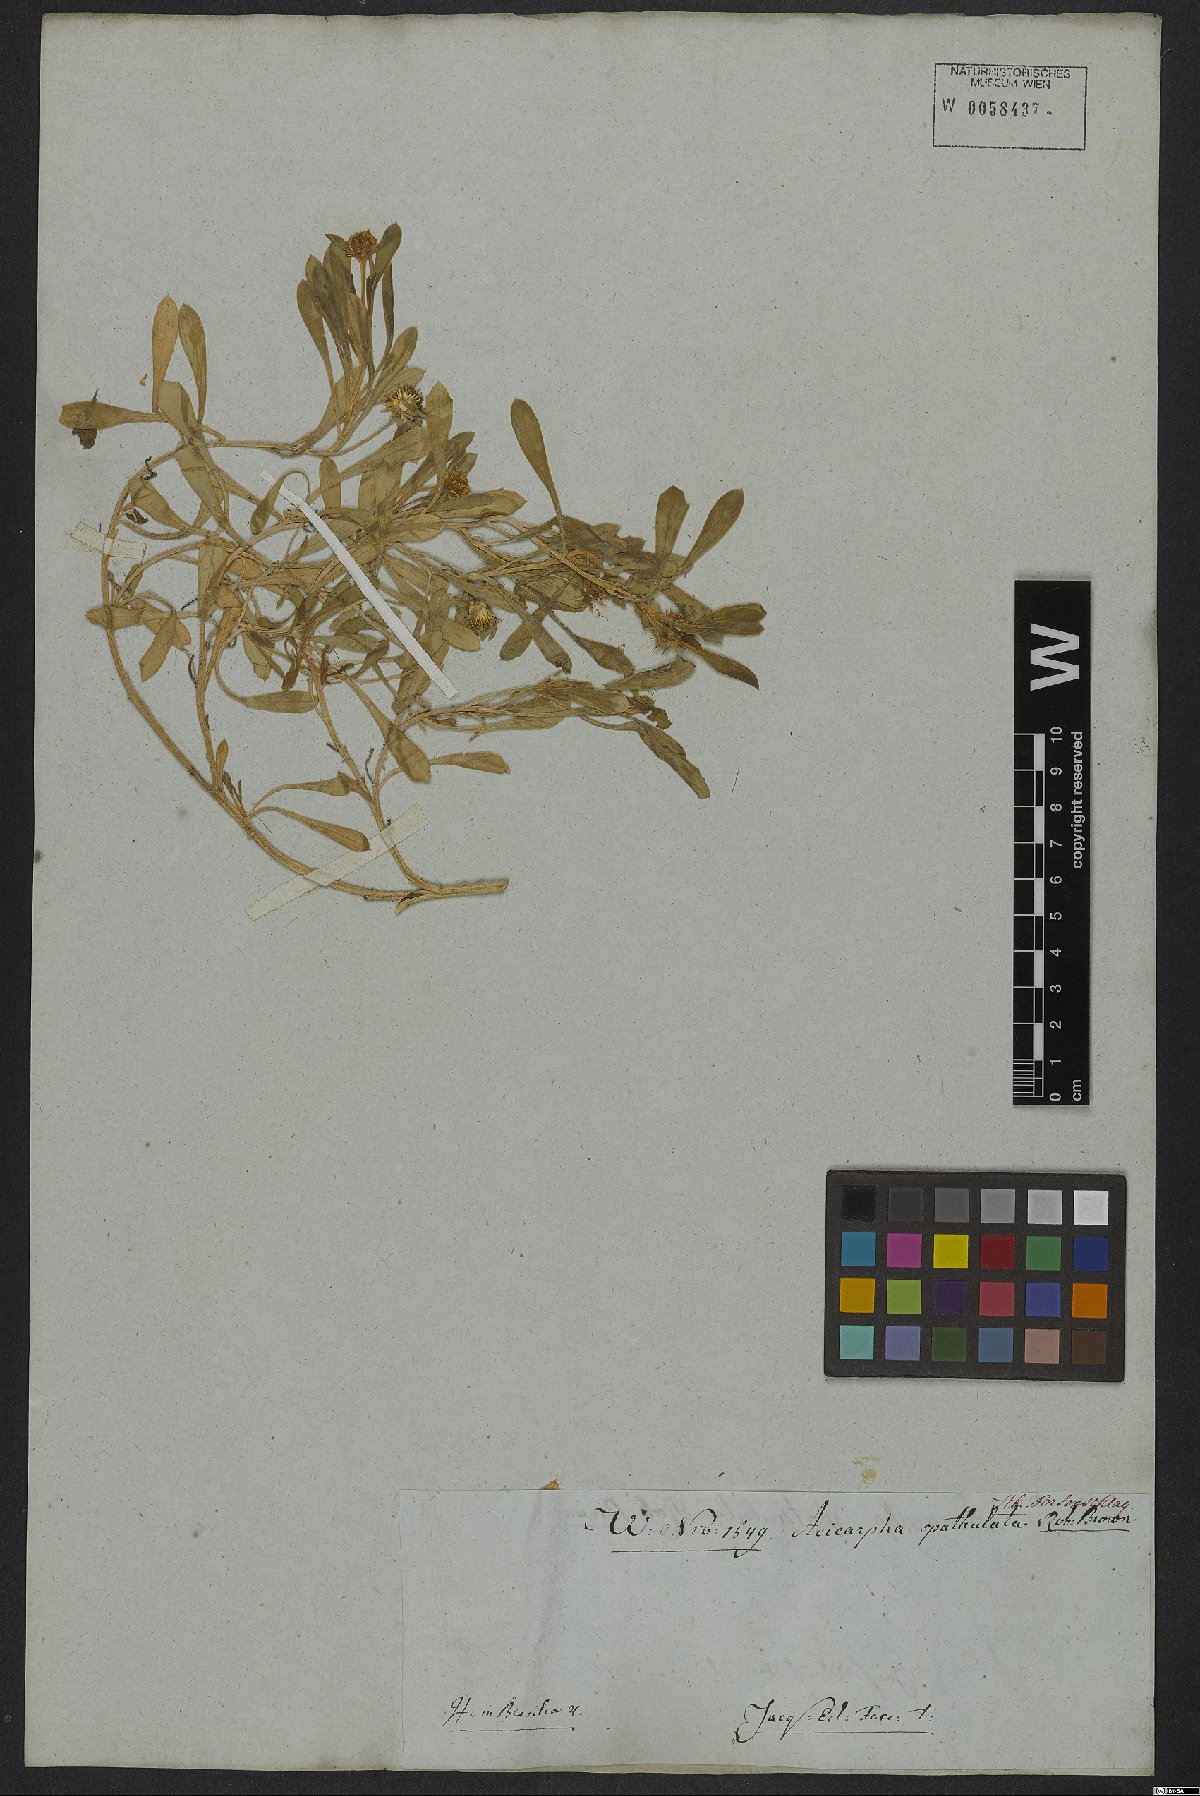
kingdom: Plantae
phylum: Tracheophyta
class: Magnoliopsida
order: Asterales
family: Calyceraceae
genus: Acicarpha
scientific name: Acicarpha spathulata
